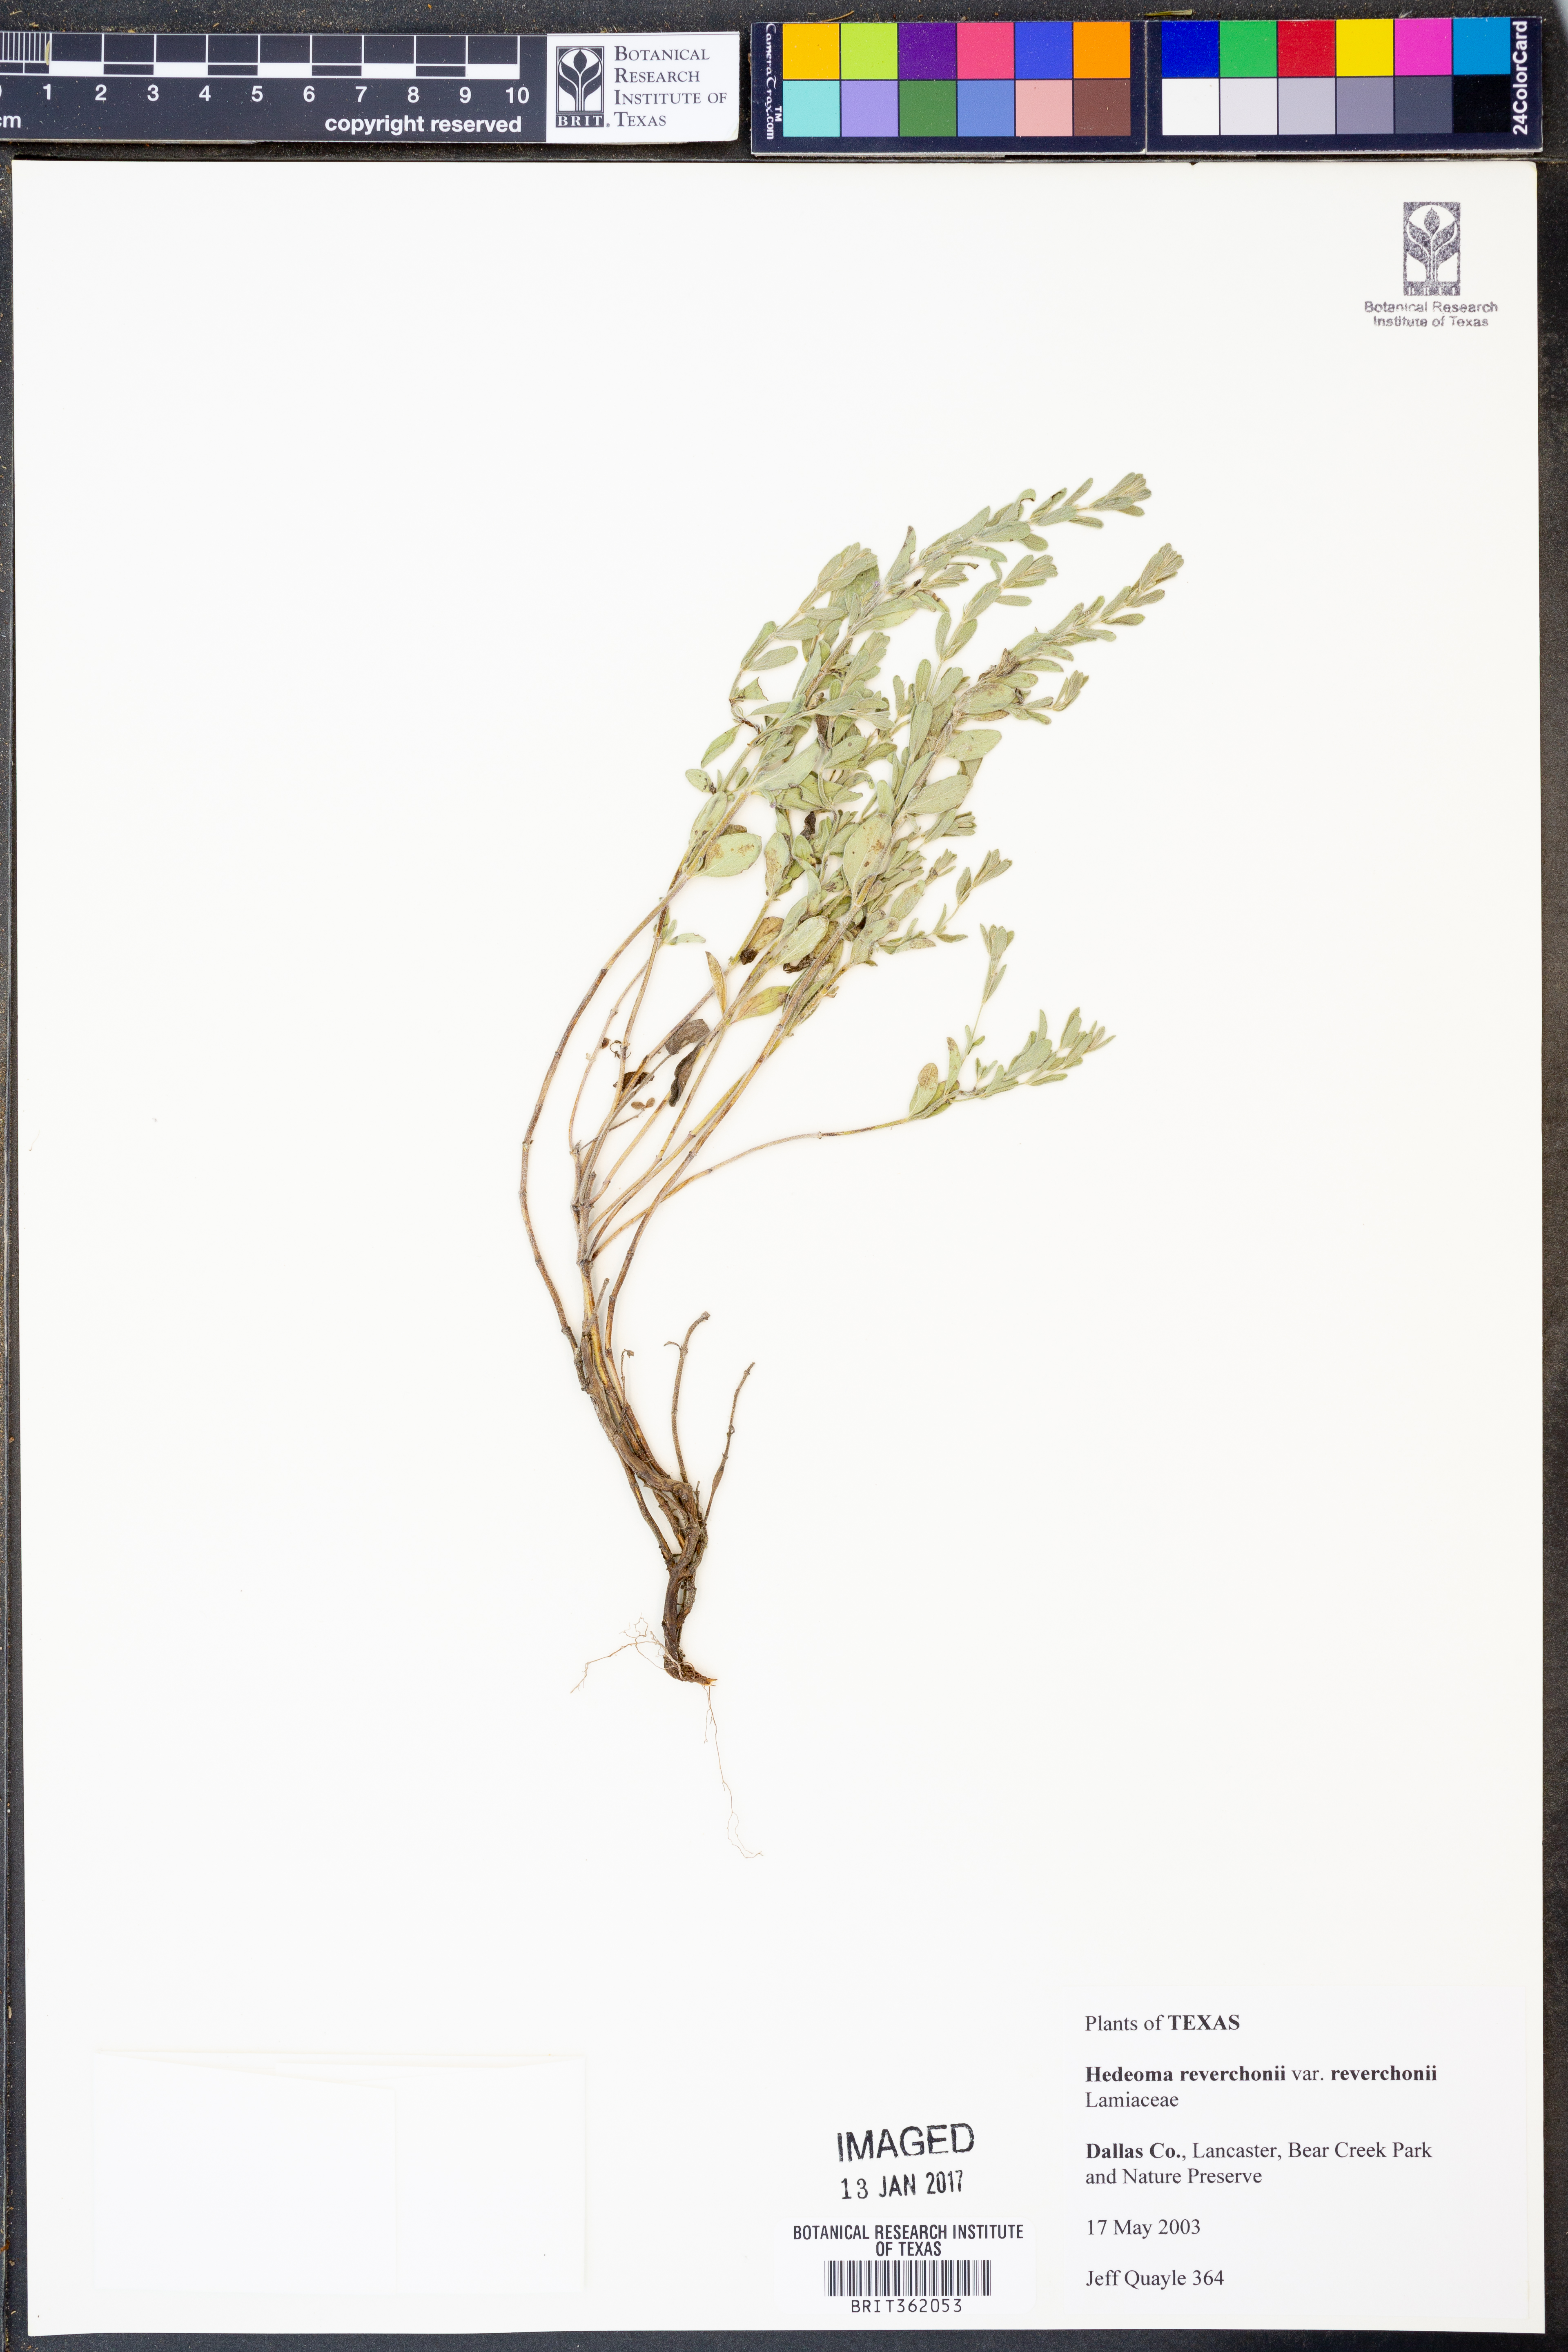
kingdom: Plantae
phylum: Tracheophyta
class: Magnoliopsida
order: Lamiales
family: Lamiaceae
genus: Hedeoma
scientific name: Hedeoma reverchonii
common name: Reverchon's false penny-royal
